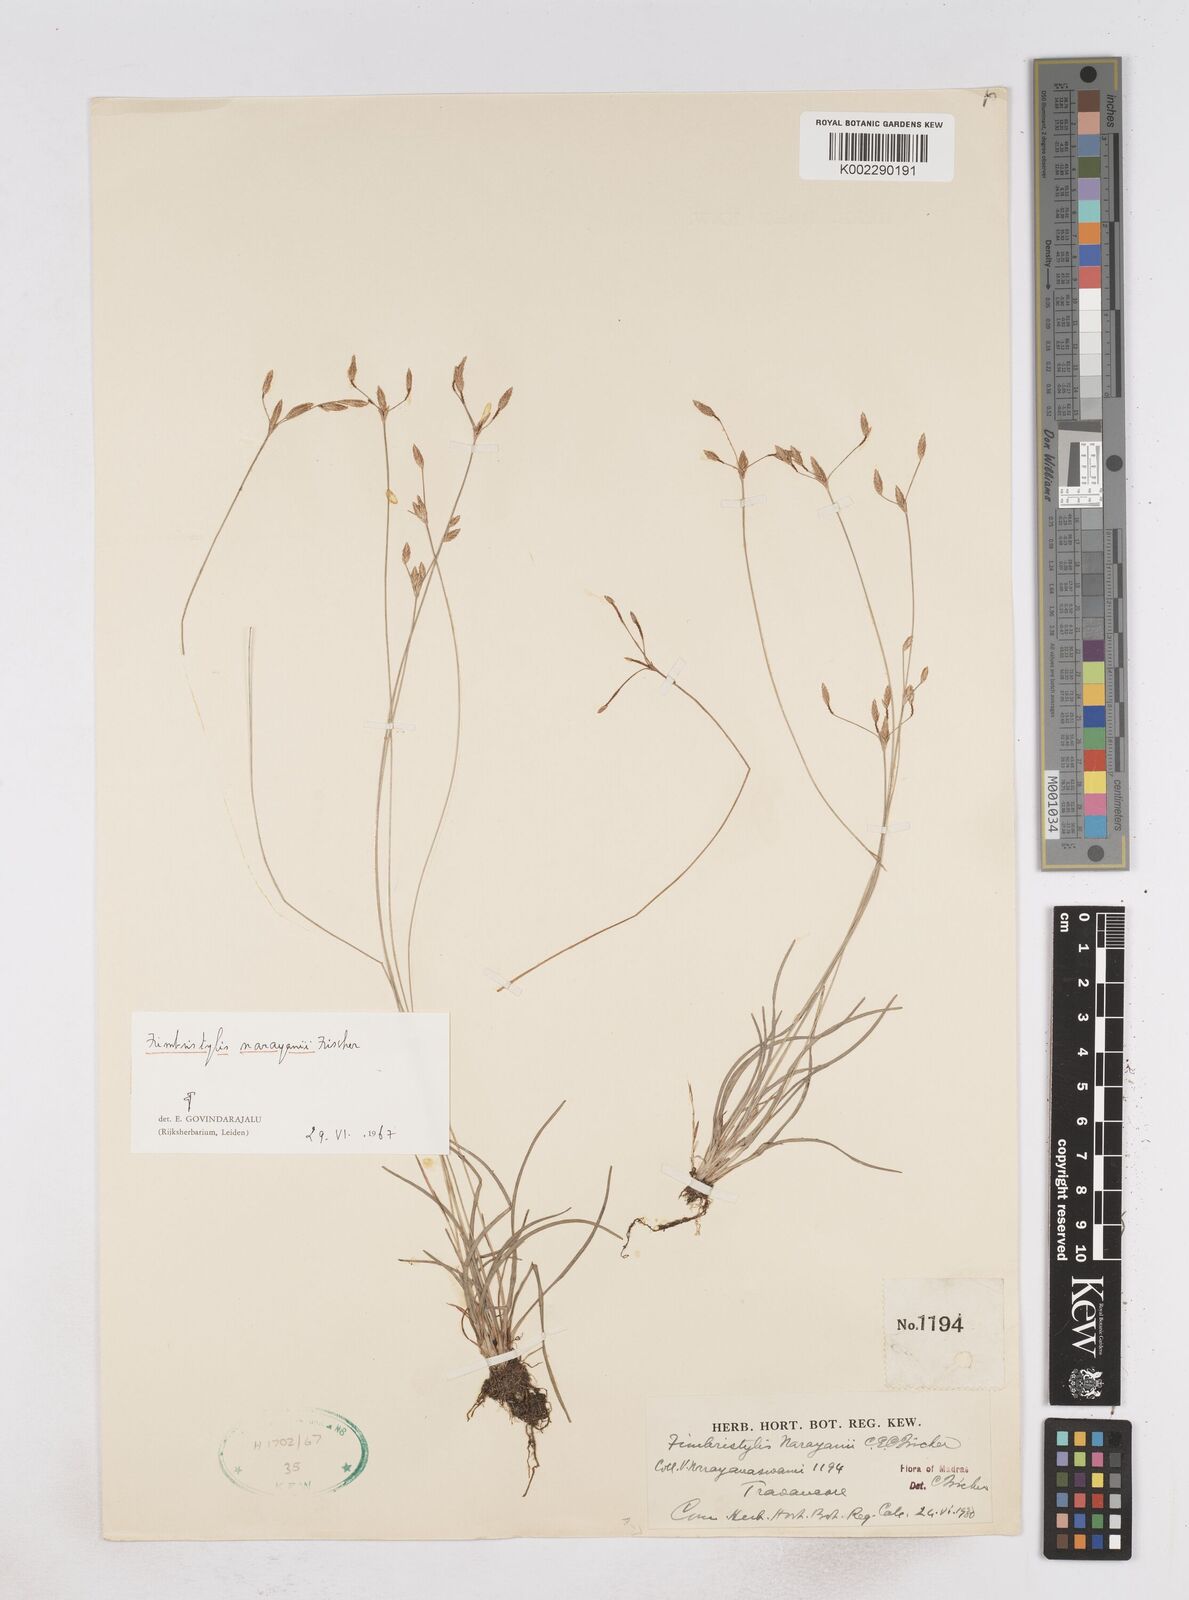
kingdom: Plantae
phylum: Tracheophyta
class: Liliopsida
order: Poales
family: Cyperaceae
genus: Fimbristylis
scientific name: Fimbristylis narayanii
